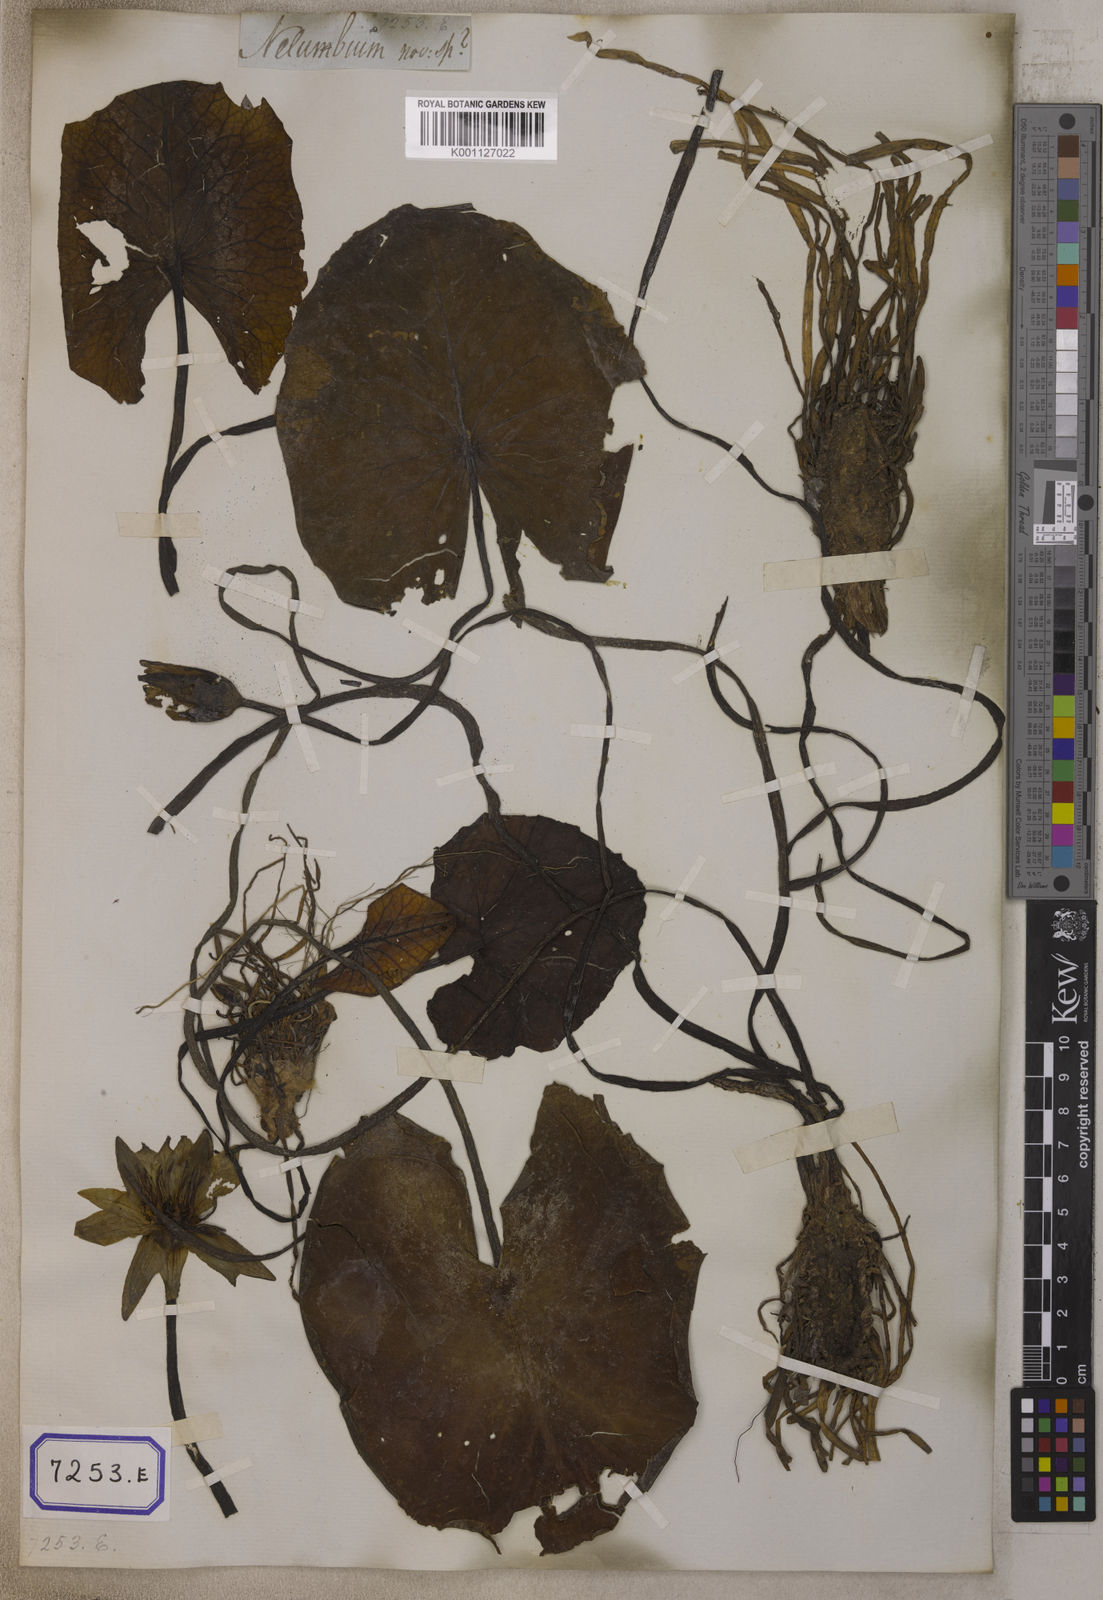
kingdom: Plantae
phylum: Tracheophyta
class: Magnoliopsida
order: Nymphaeales
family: Nymphaeaceae
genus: Nymphaea
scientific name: Nymphaea nouchali
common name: Blue lotus
